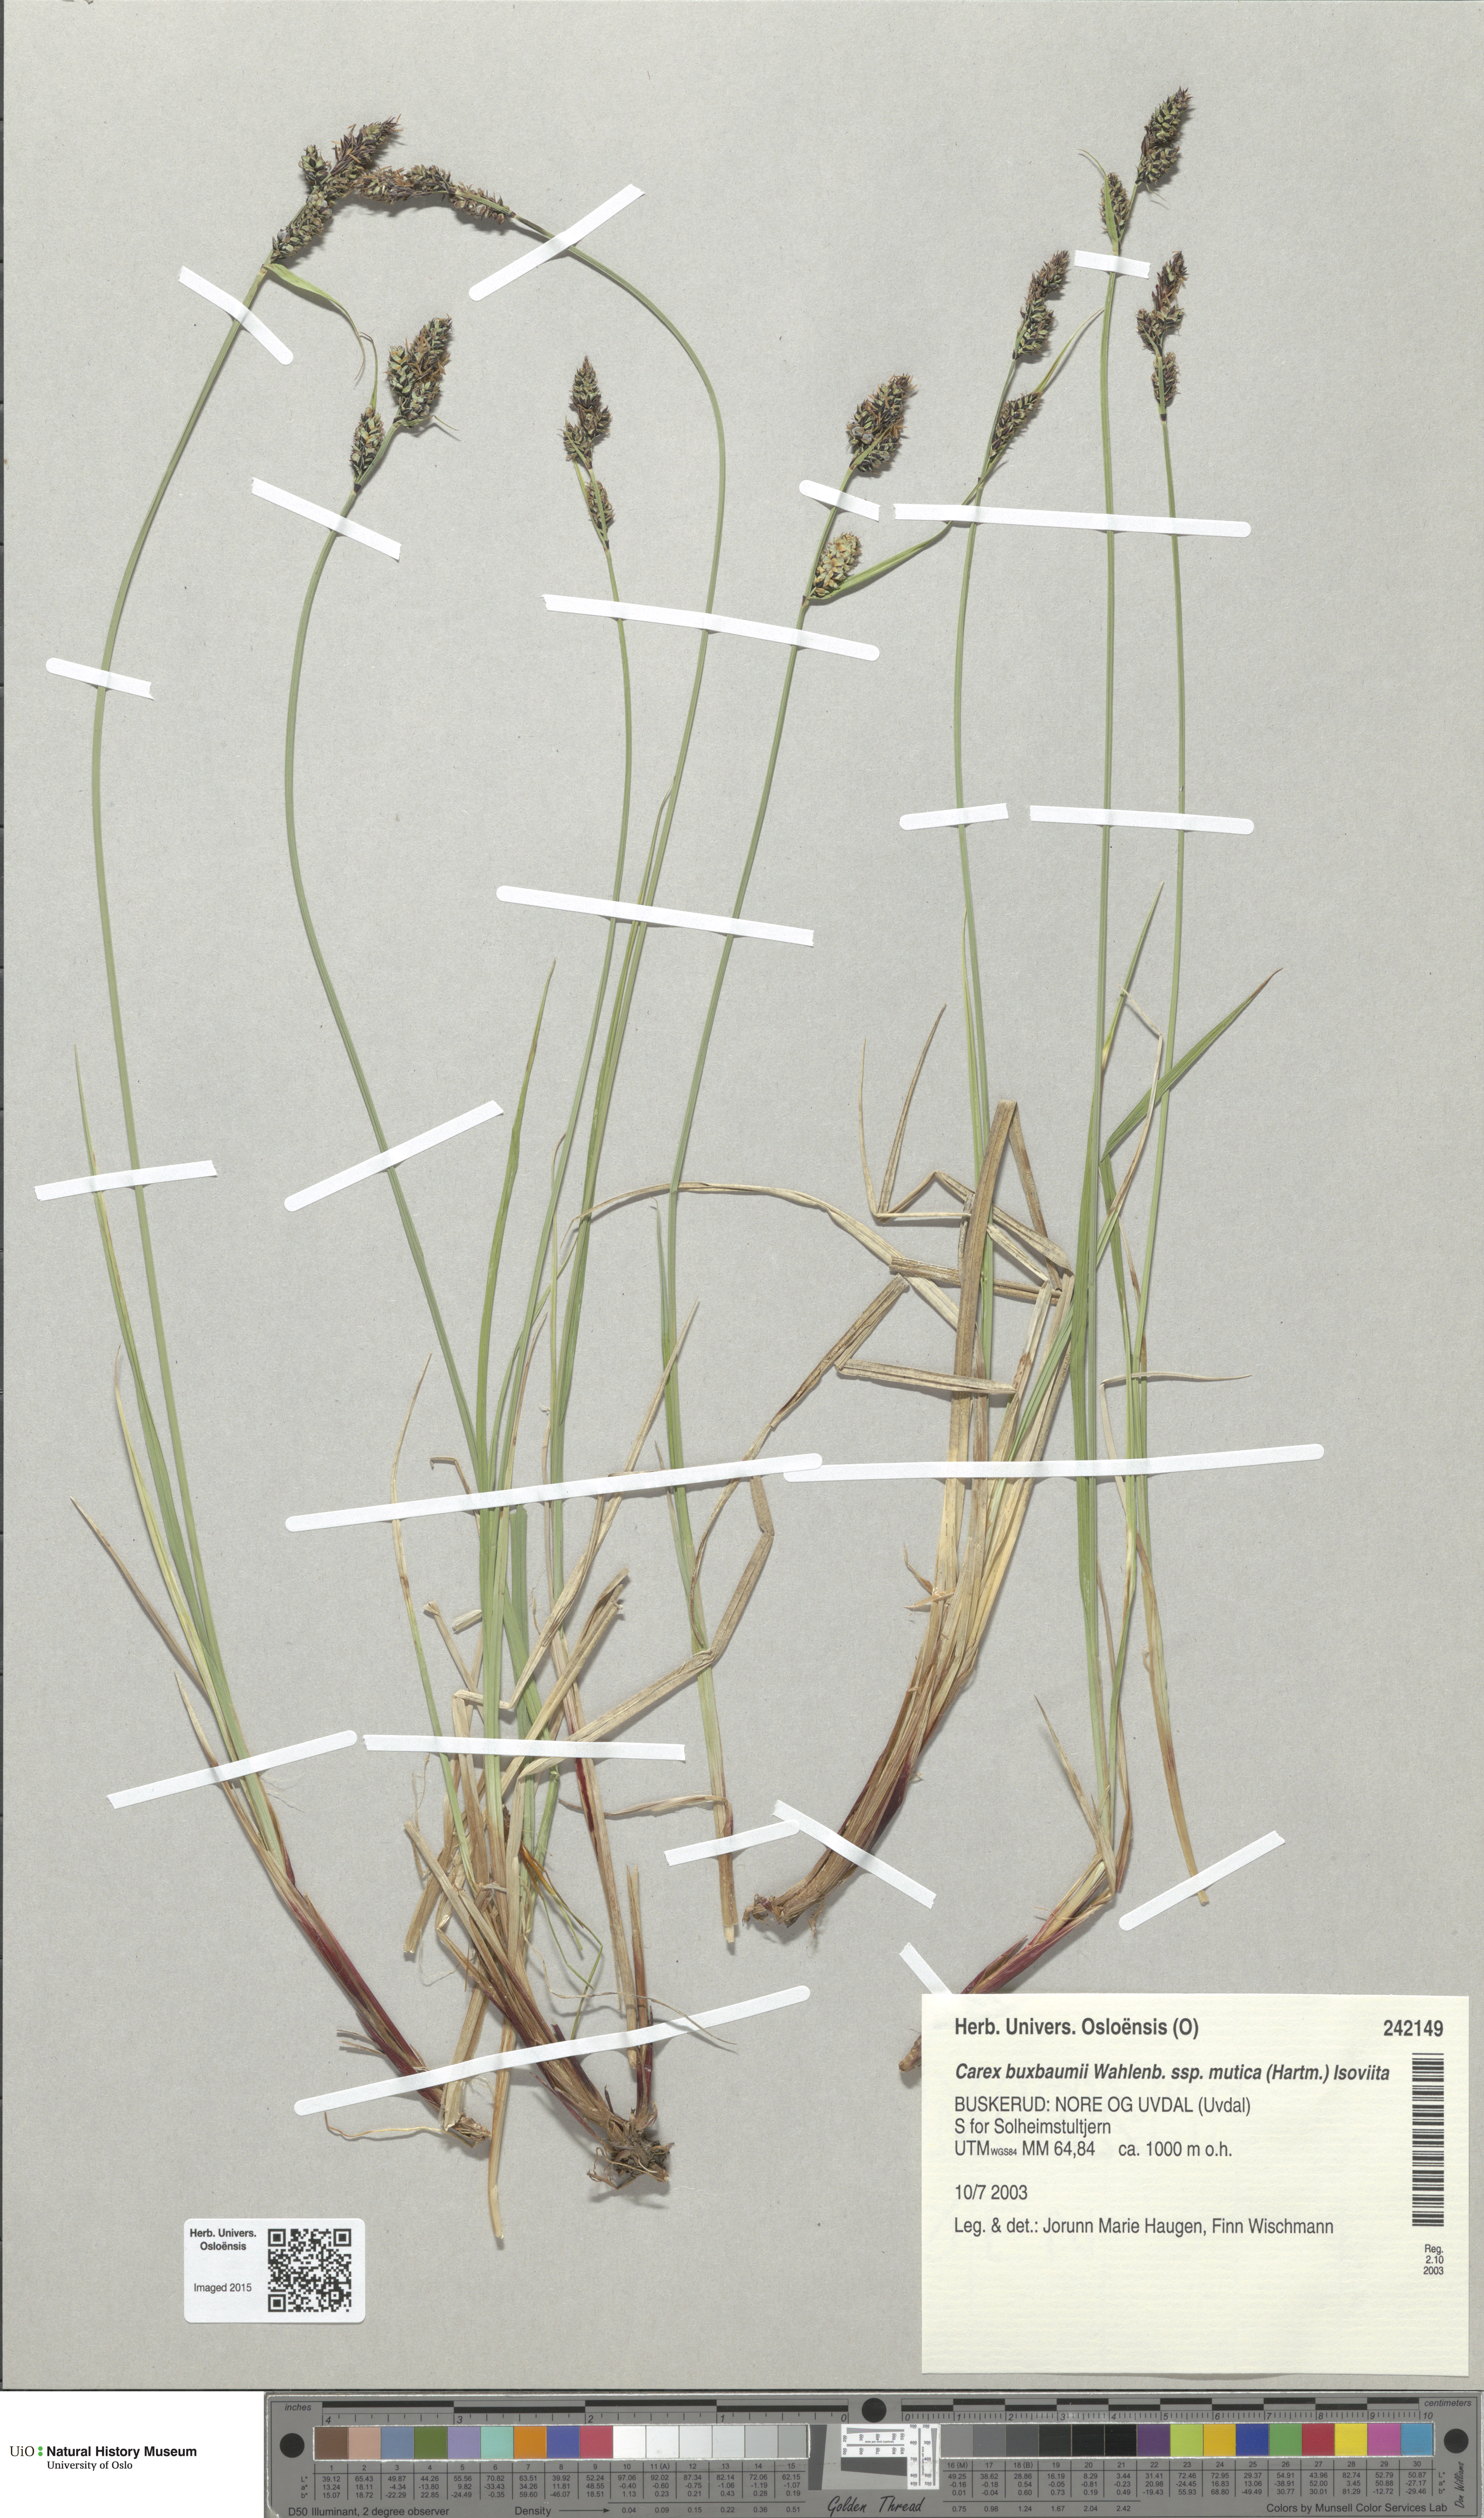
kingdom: Plantae
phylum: Tracheophyta
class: Liliopsida
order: Poales
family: Cyperaceae
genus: Carex
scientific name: Carex adelostoma
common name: Circumpolar sedge
